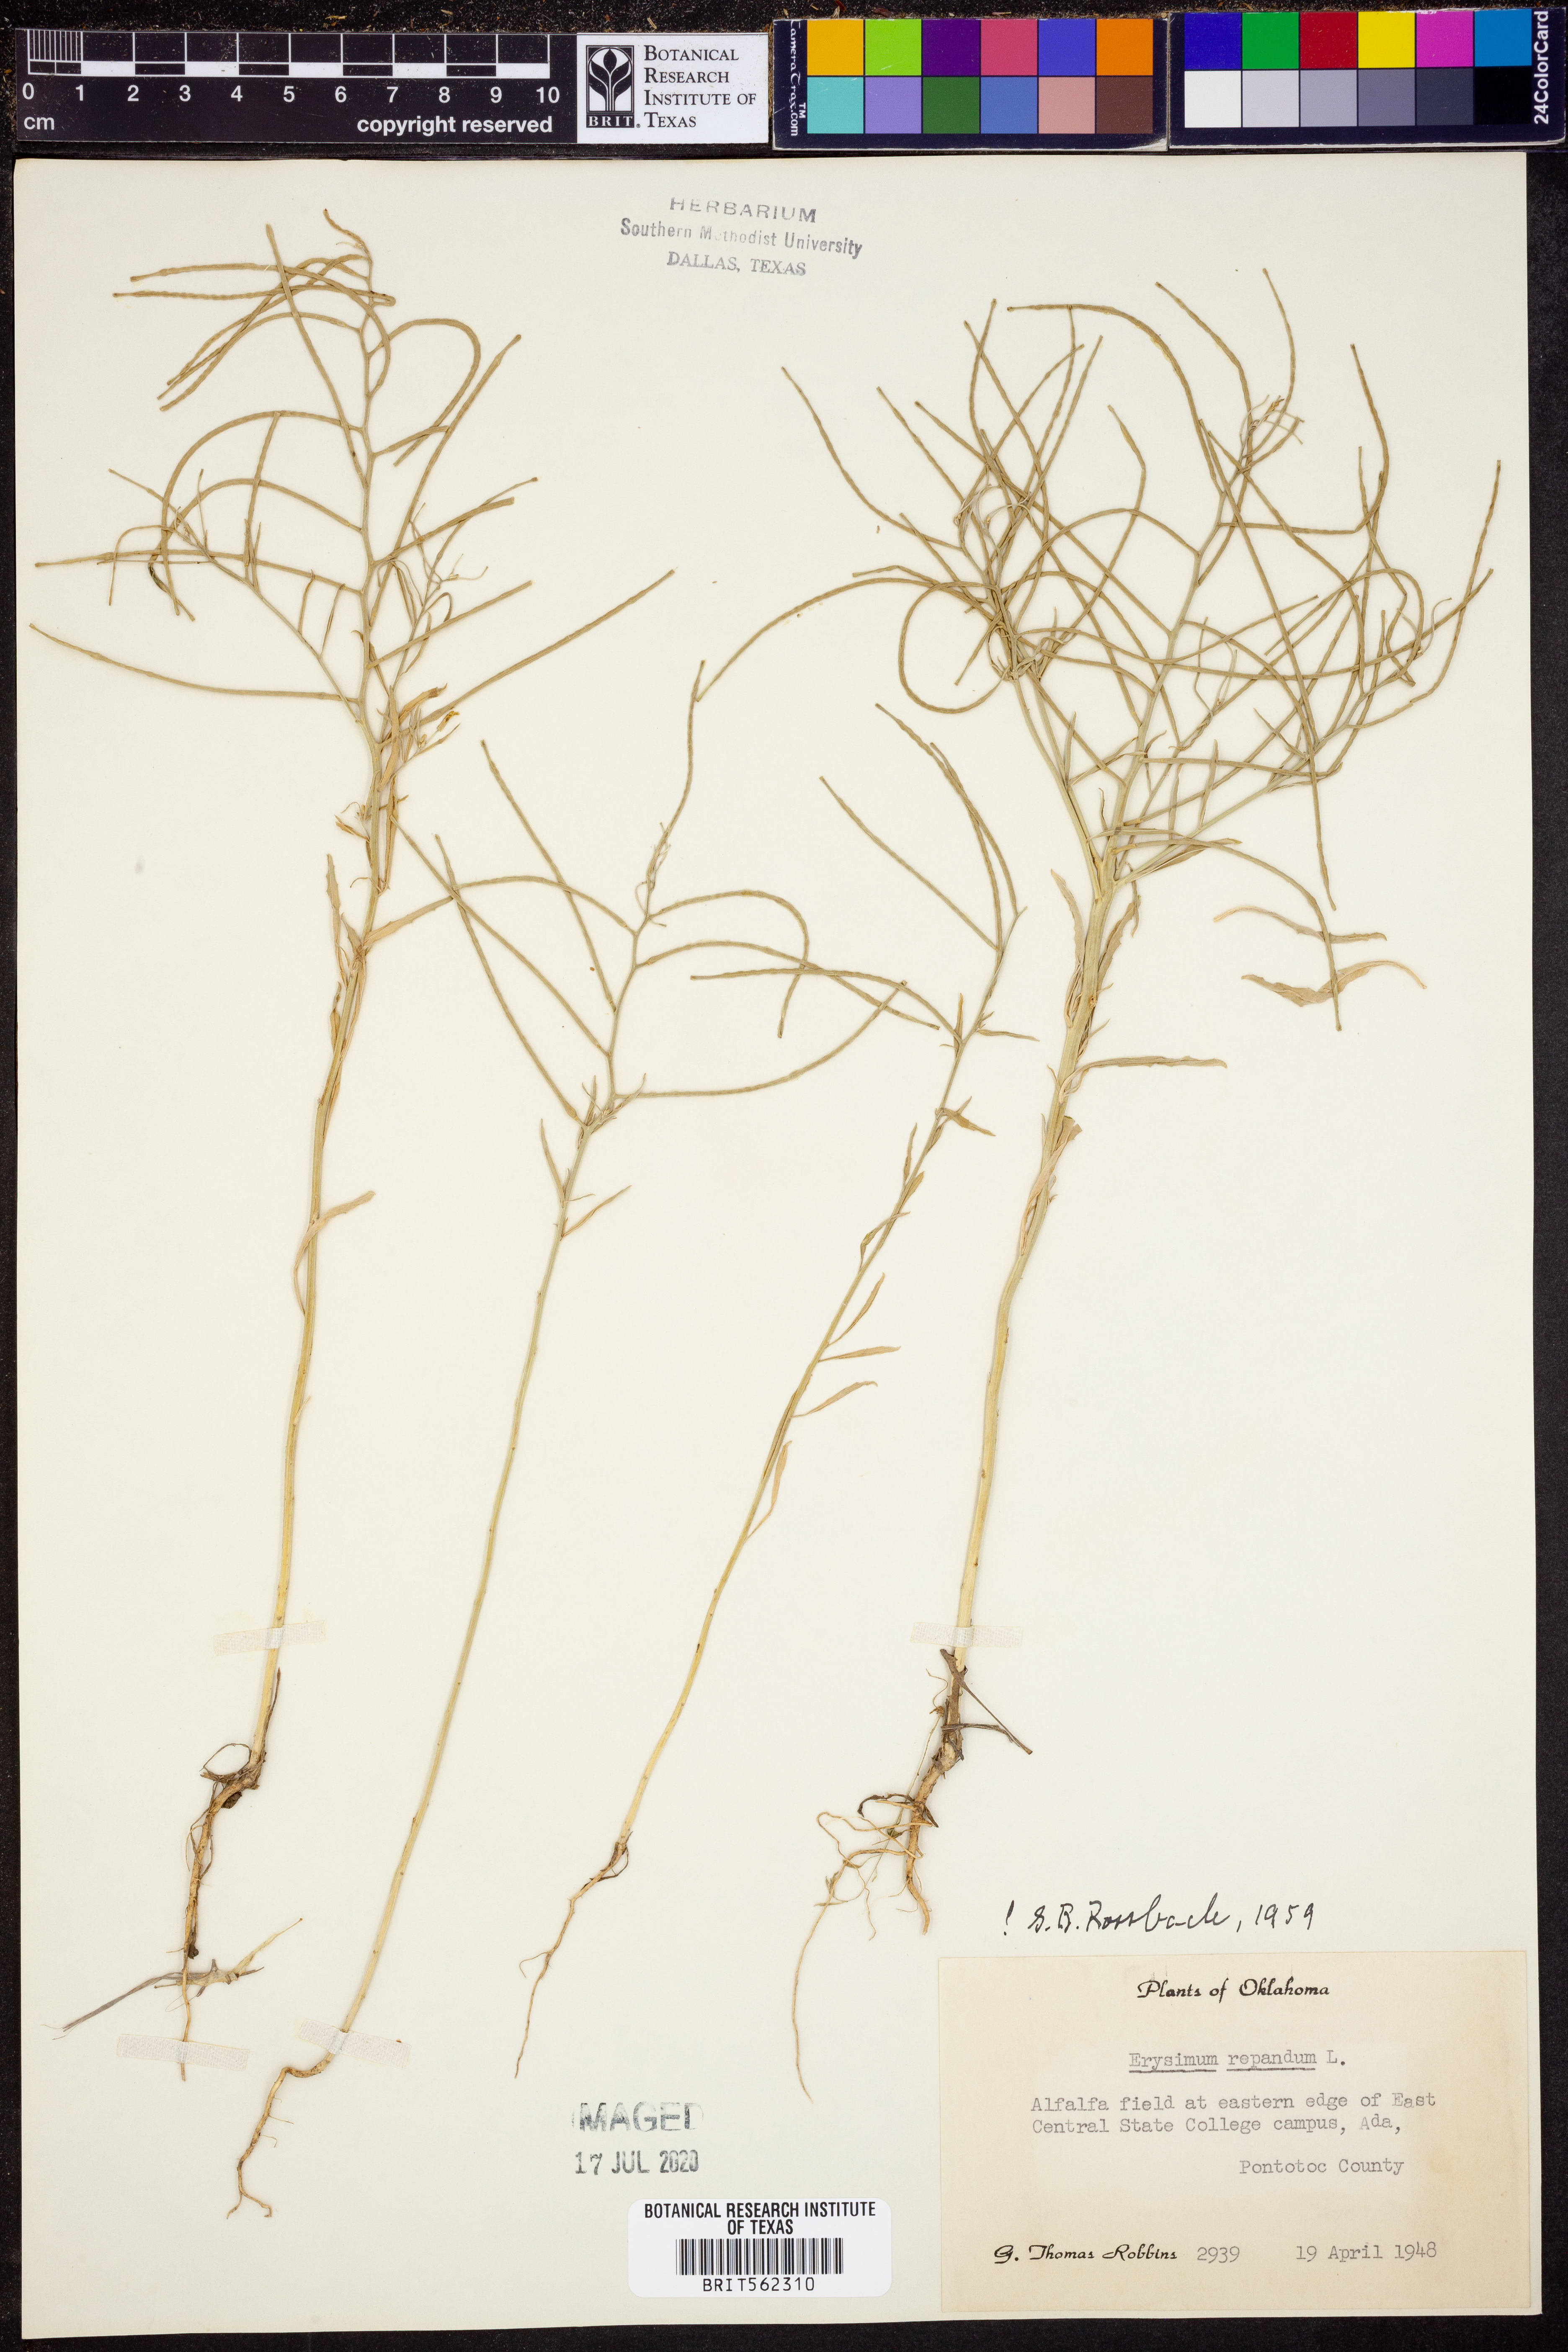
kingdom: Plantae
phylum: Tracheophyta
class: Magnoliopsida
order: Brassicales
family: Brassicaceae
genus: Erysimum
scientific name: Erysimum repandum
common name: Spreading wallflower
